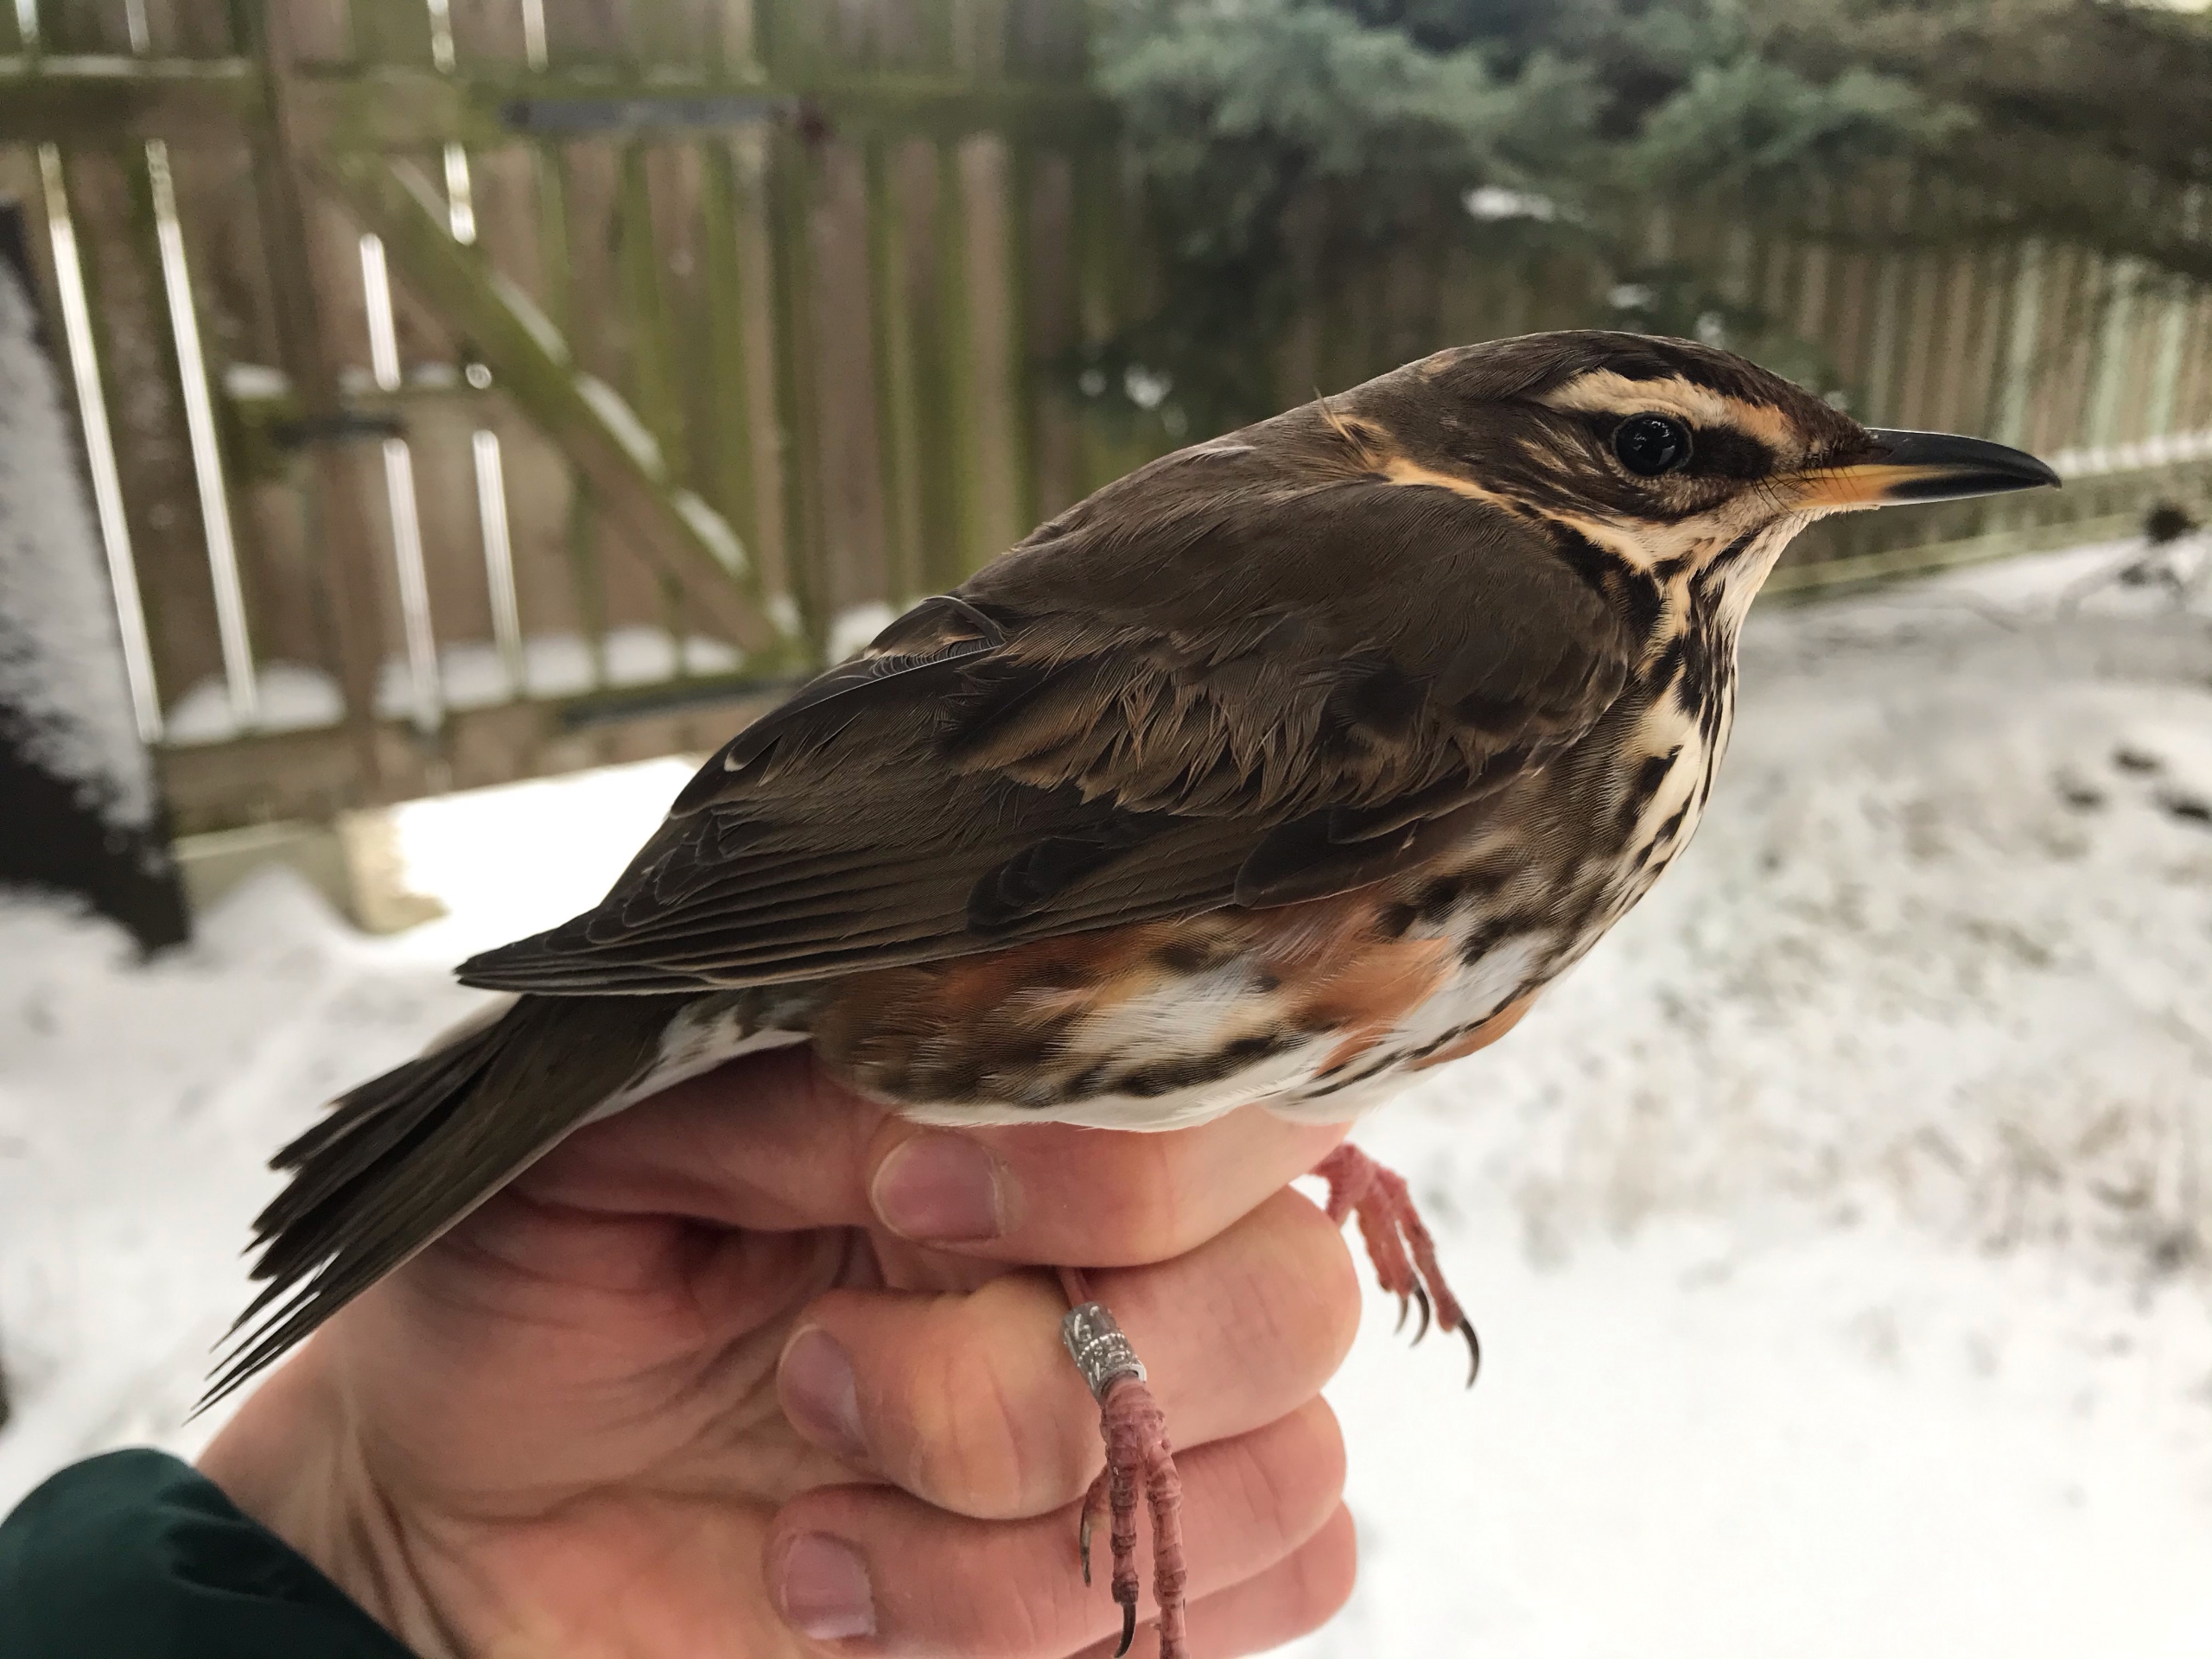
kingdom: Animalia
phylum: Chordata
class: Aves
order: Passeriformes
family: Turdidae
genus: Turdus
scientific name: Turdus iliacus
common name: Vindrossel
